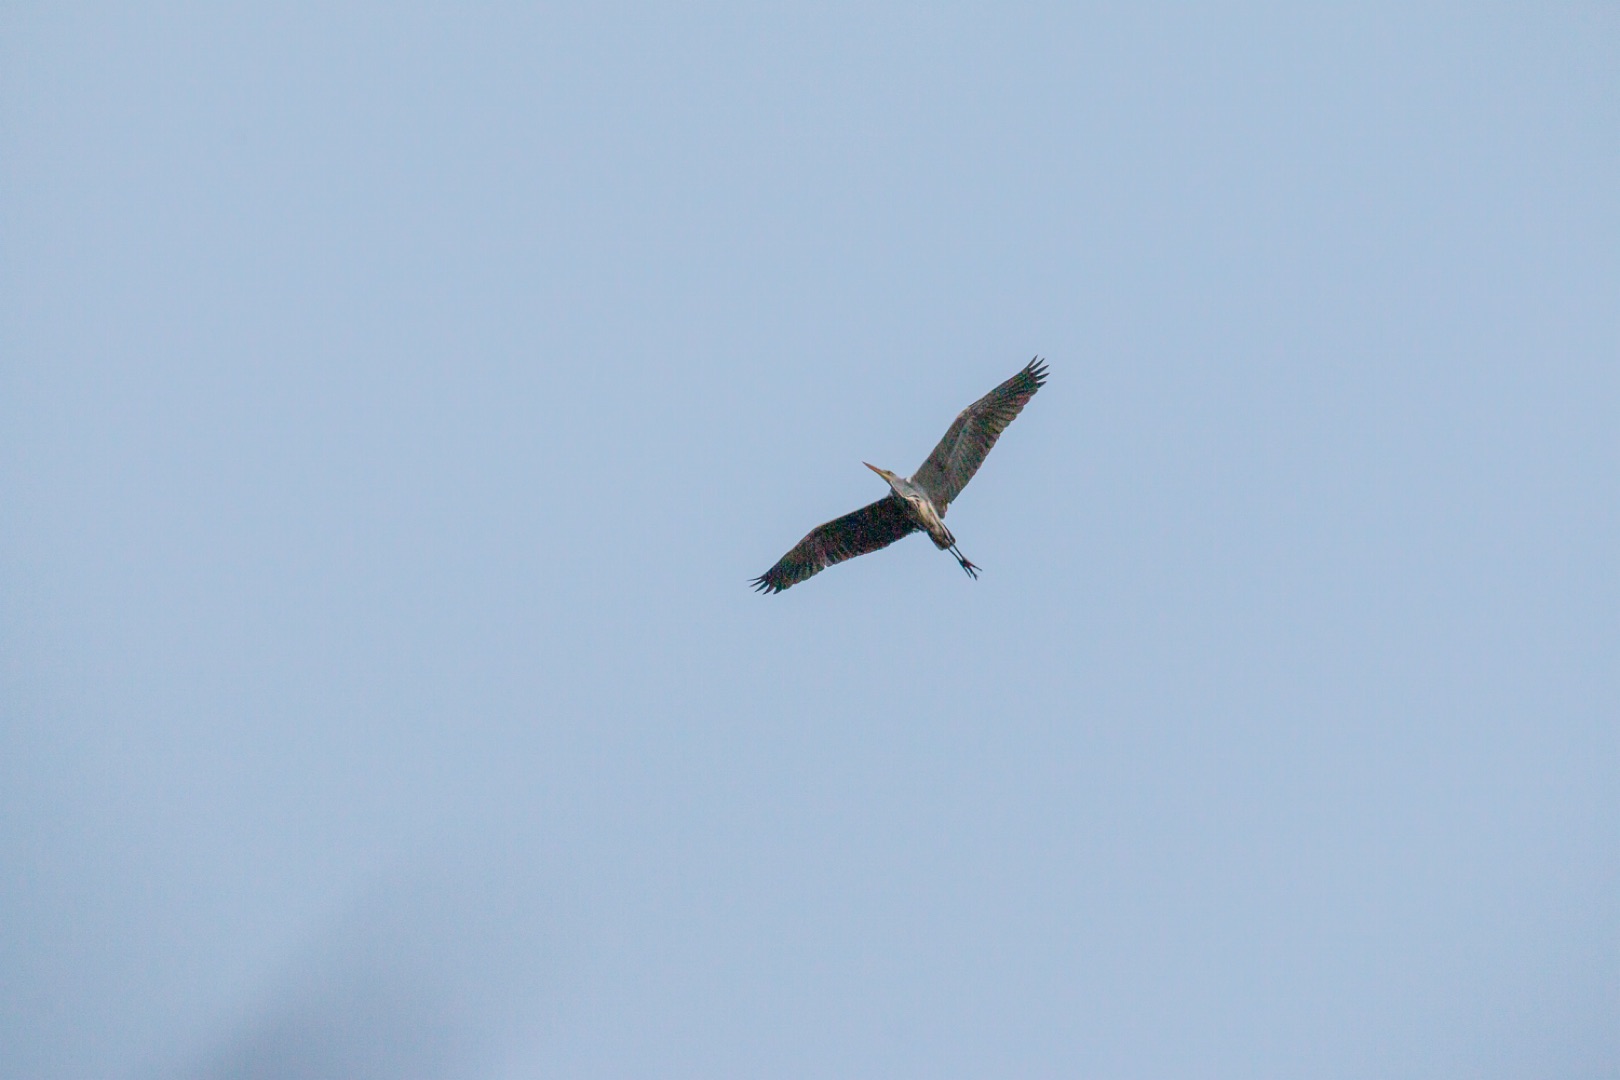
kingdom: Animalia
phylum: Chordata
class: Aves
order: Pelecaniformes
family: Ardeidae
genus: Ardea
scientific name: Ardea cinerea
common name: Fiskehejre
